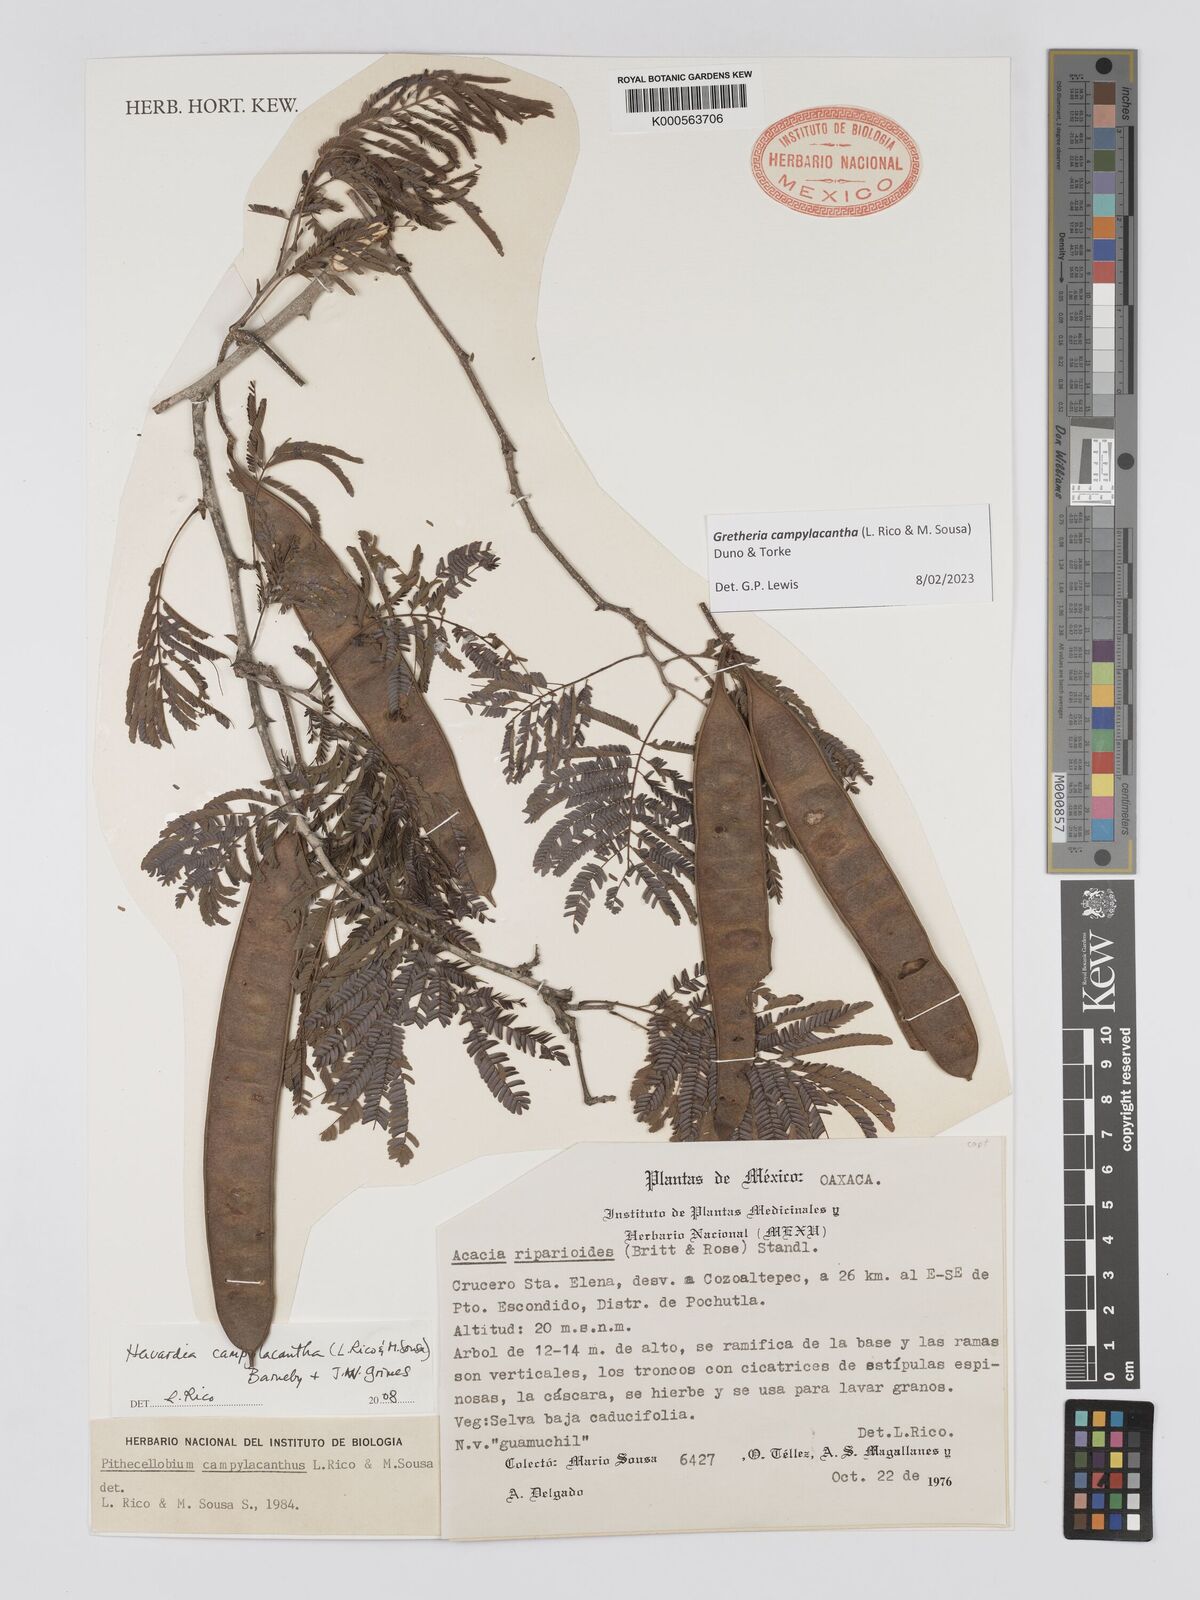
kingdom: Plantae
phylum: Tracheophyta
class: Magnoliopsida
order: Fabales
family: Fabaceae
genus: Havardia
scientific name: Havardia campylacantha
